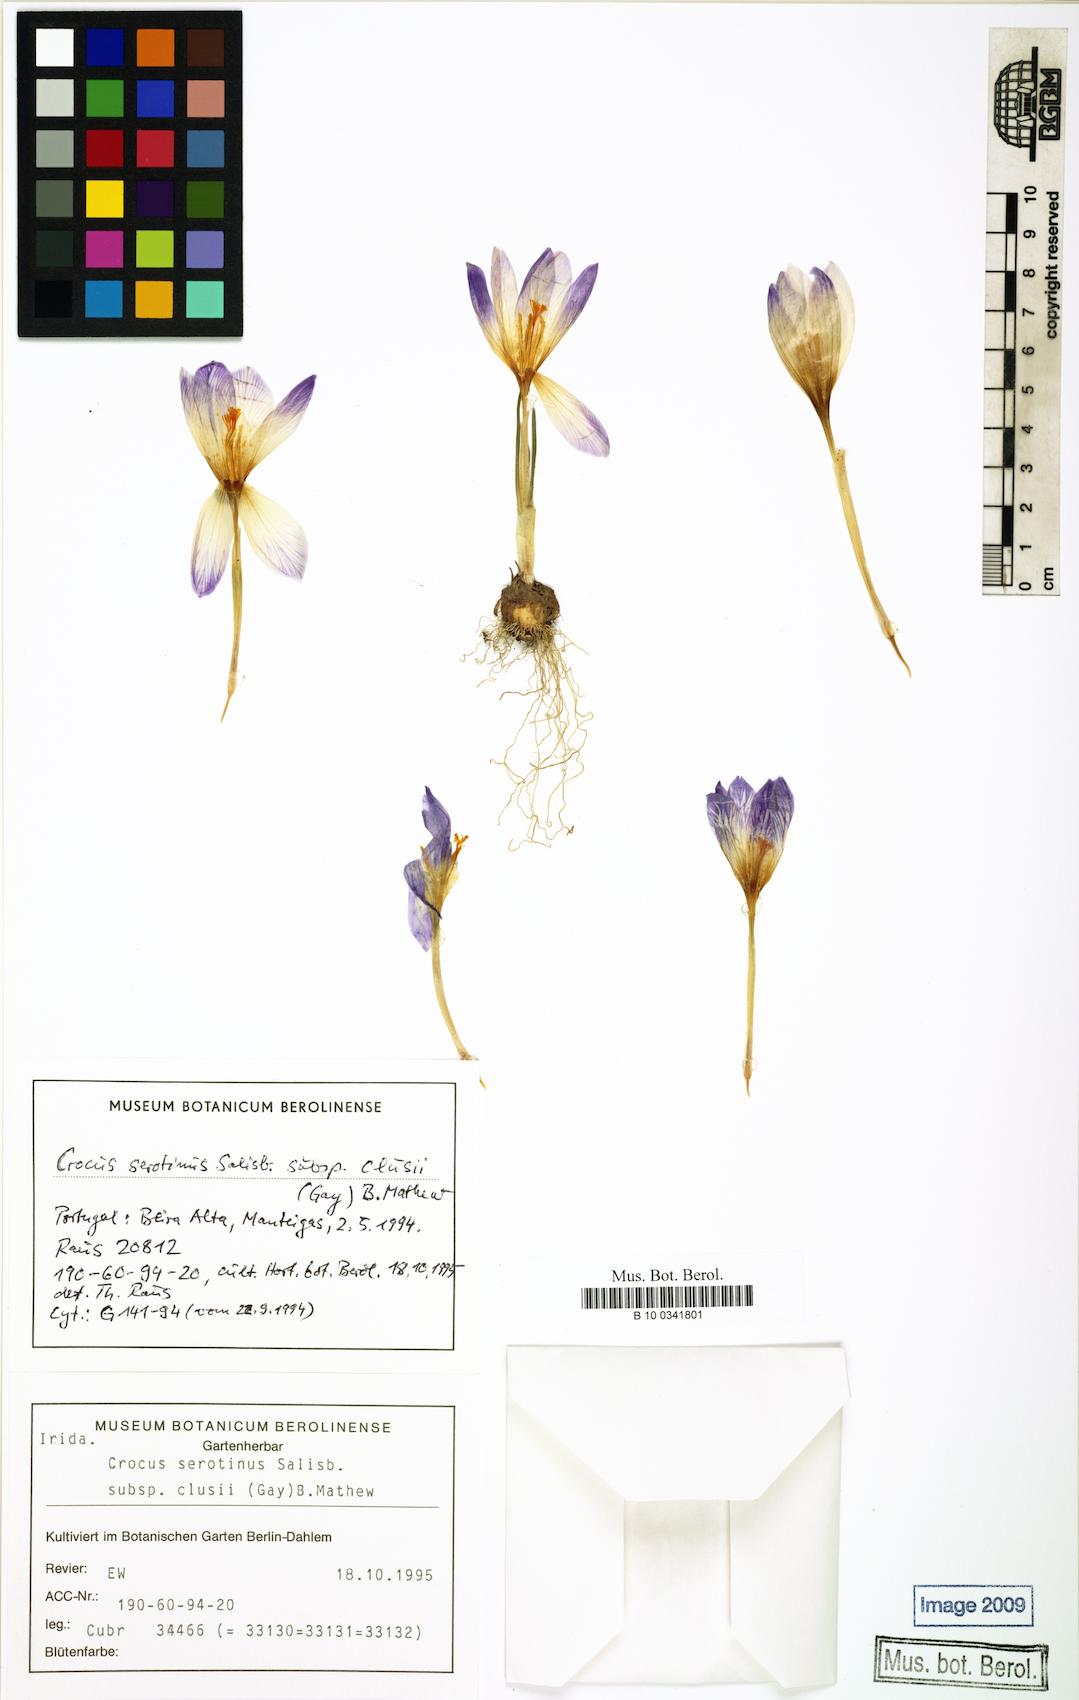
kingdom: Plantae
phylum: Tracheophyta
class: Liliopsida
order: Asparagales
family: Iridaceae
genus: Crocus
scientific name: Crocus clusii
